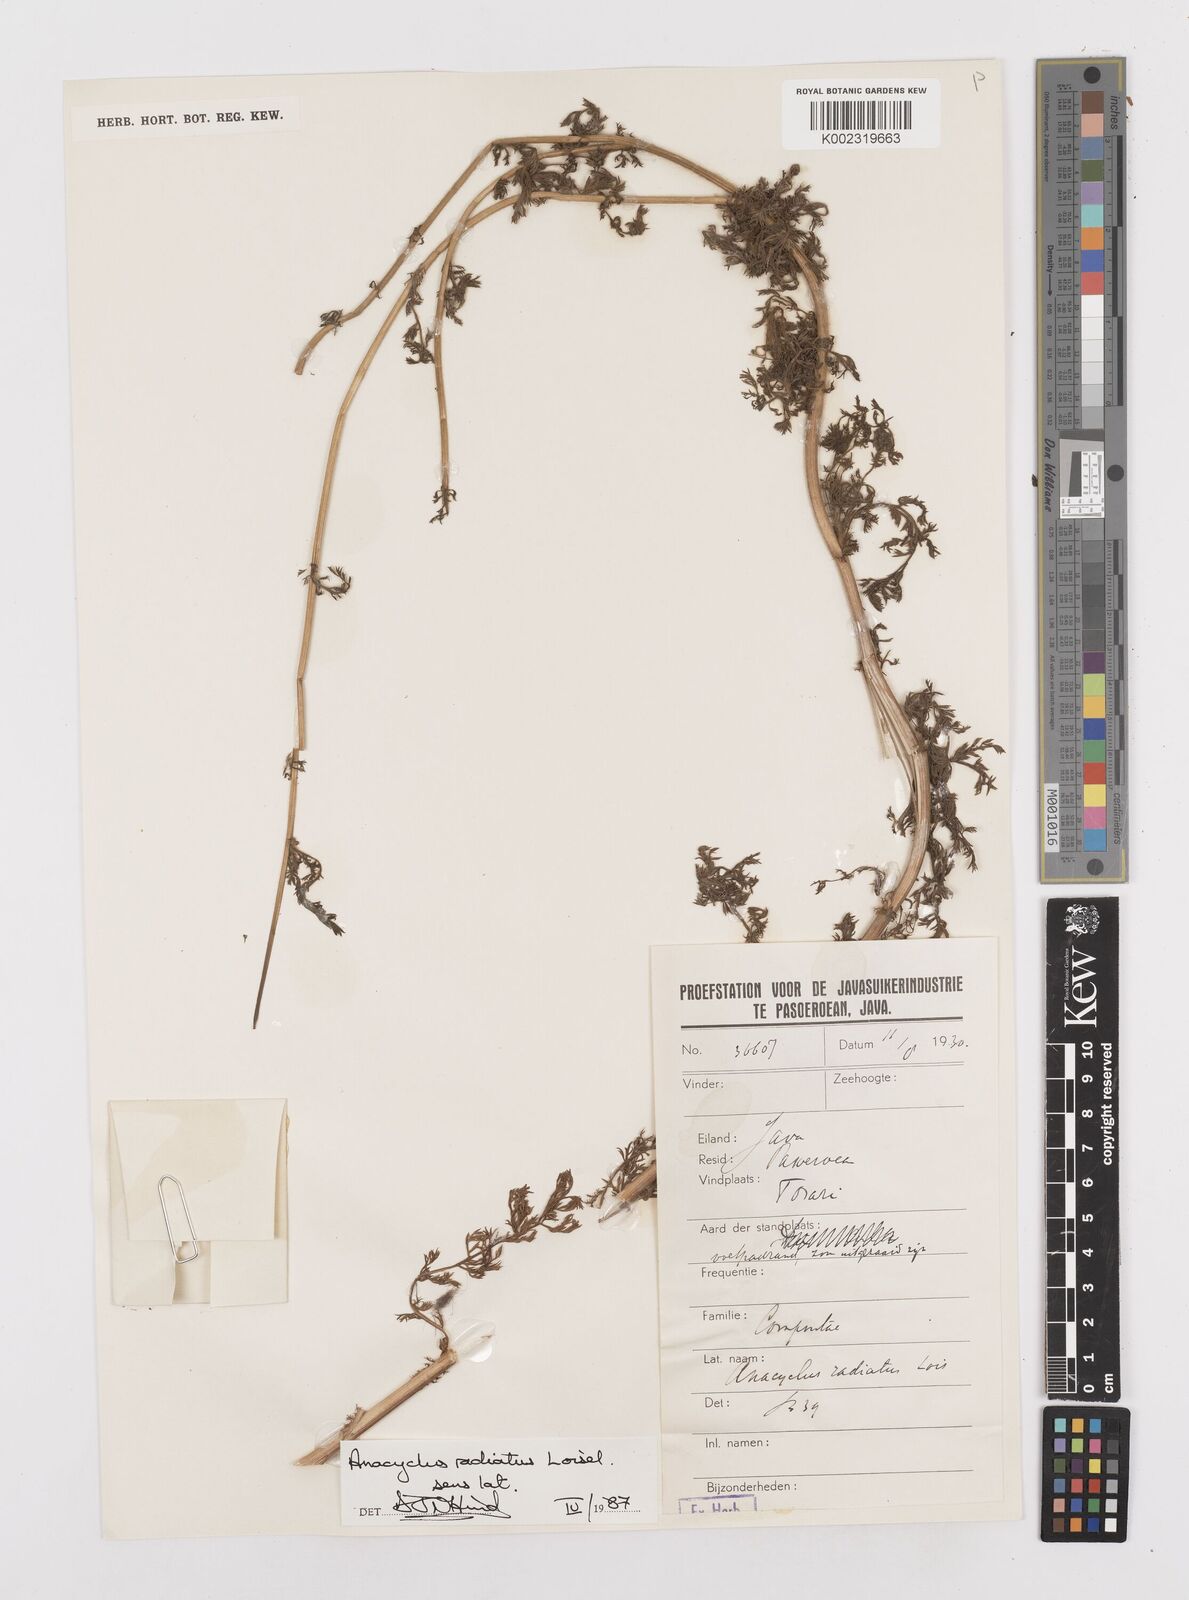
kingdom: Plantae
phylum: Tracheophyta
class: Magnoliopsida
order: Asterales
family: Asteraceae
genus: Anacyclus
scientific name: Anacyclus radiatus
